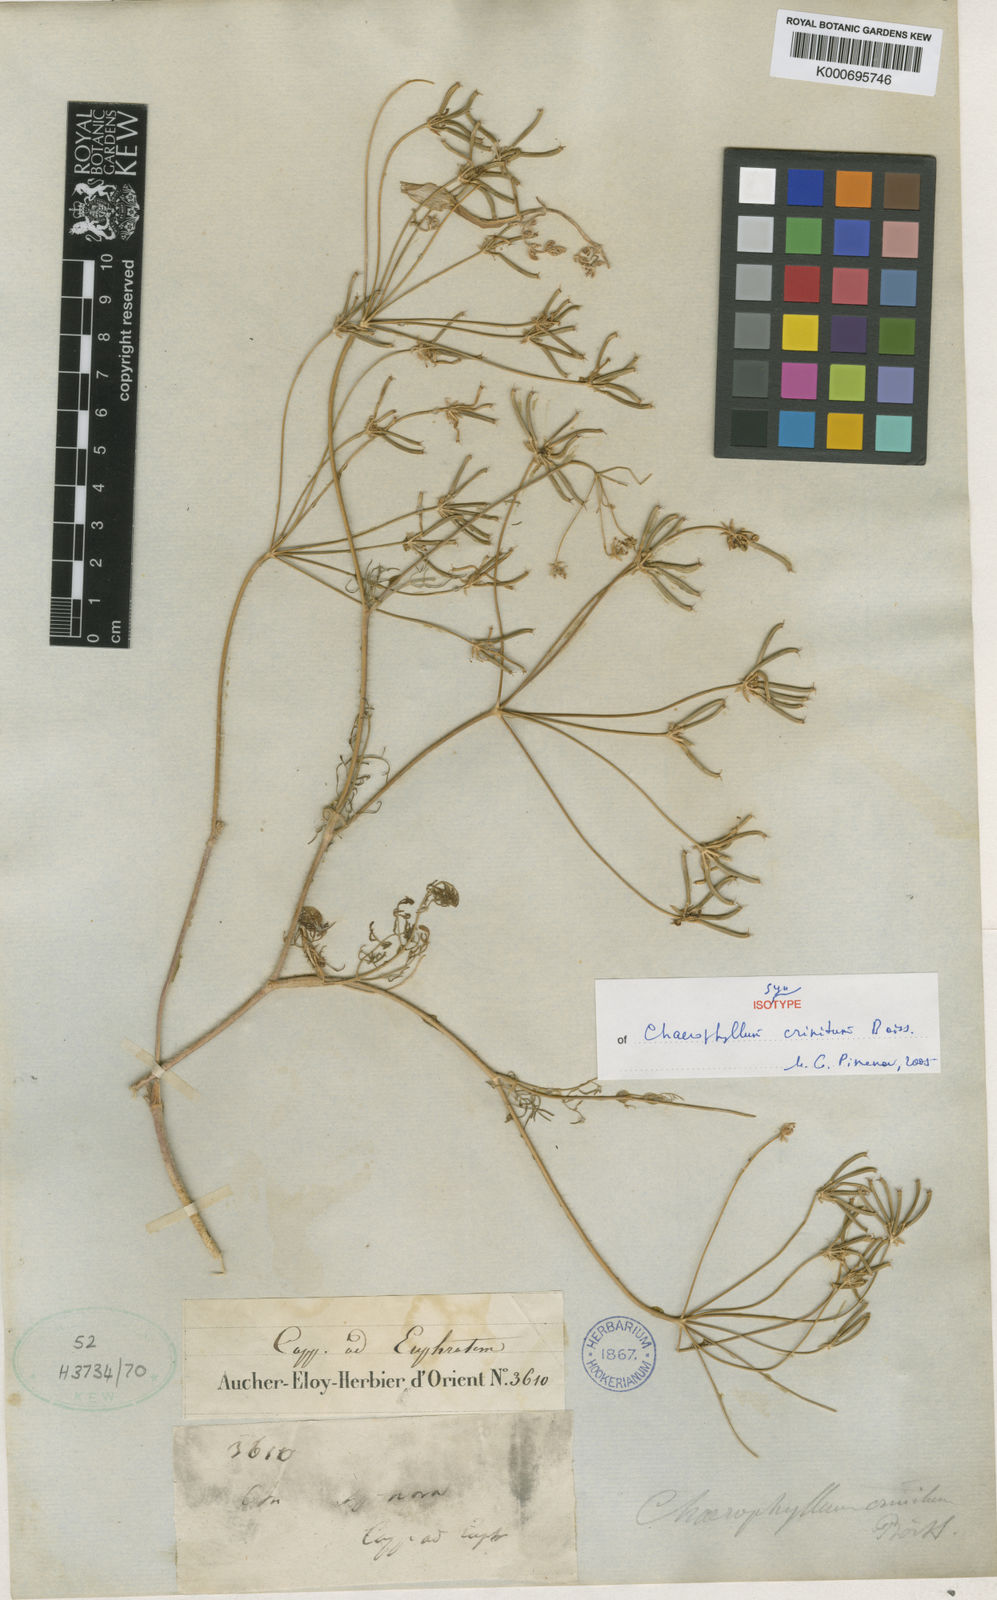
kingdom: Plantae
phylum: Tracheophyta
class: Magnoliopsida
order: Apiales
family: Apiaceae
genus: Chaerophyllum
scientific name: Chaerophyllum crinitum
